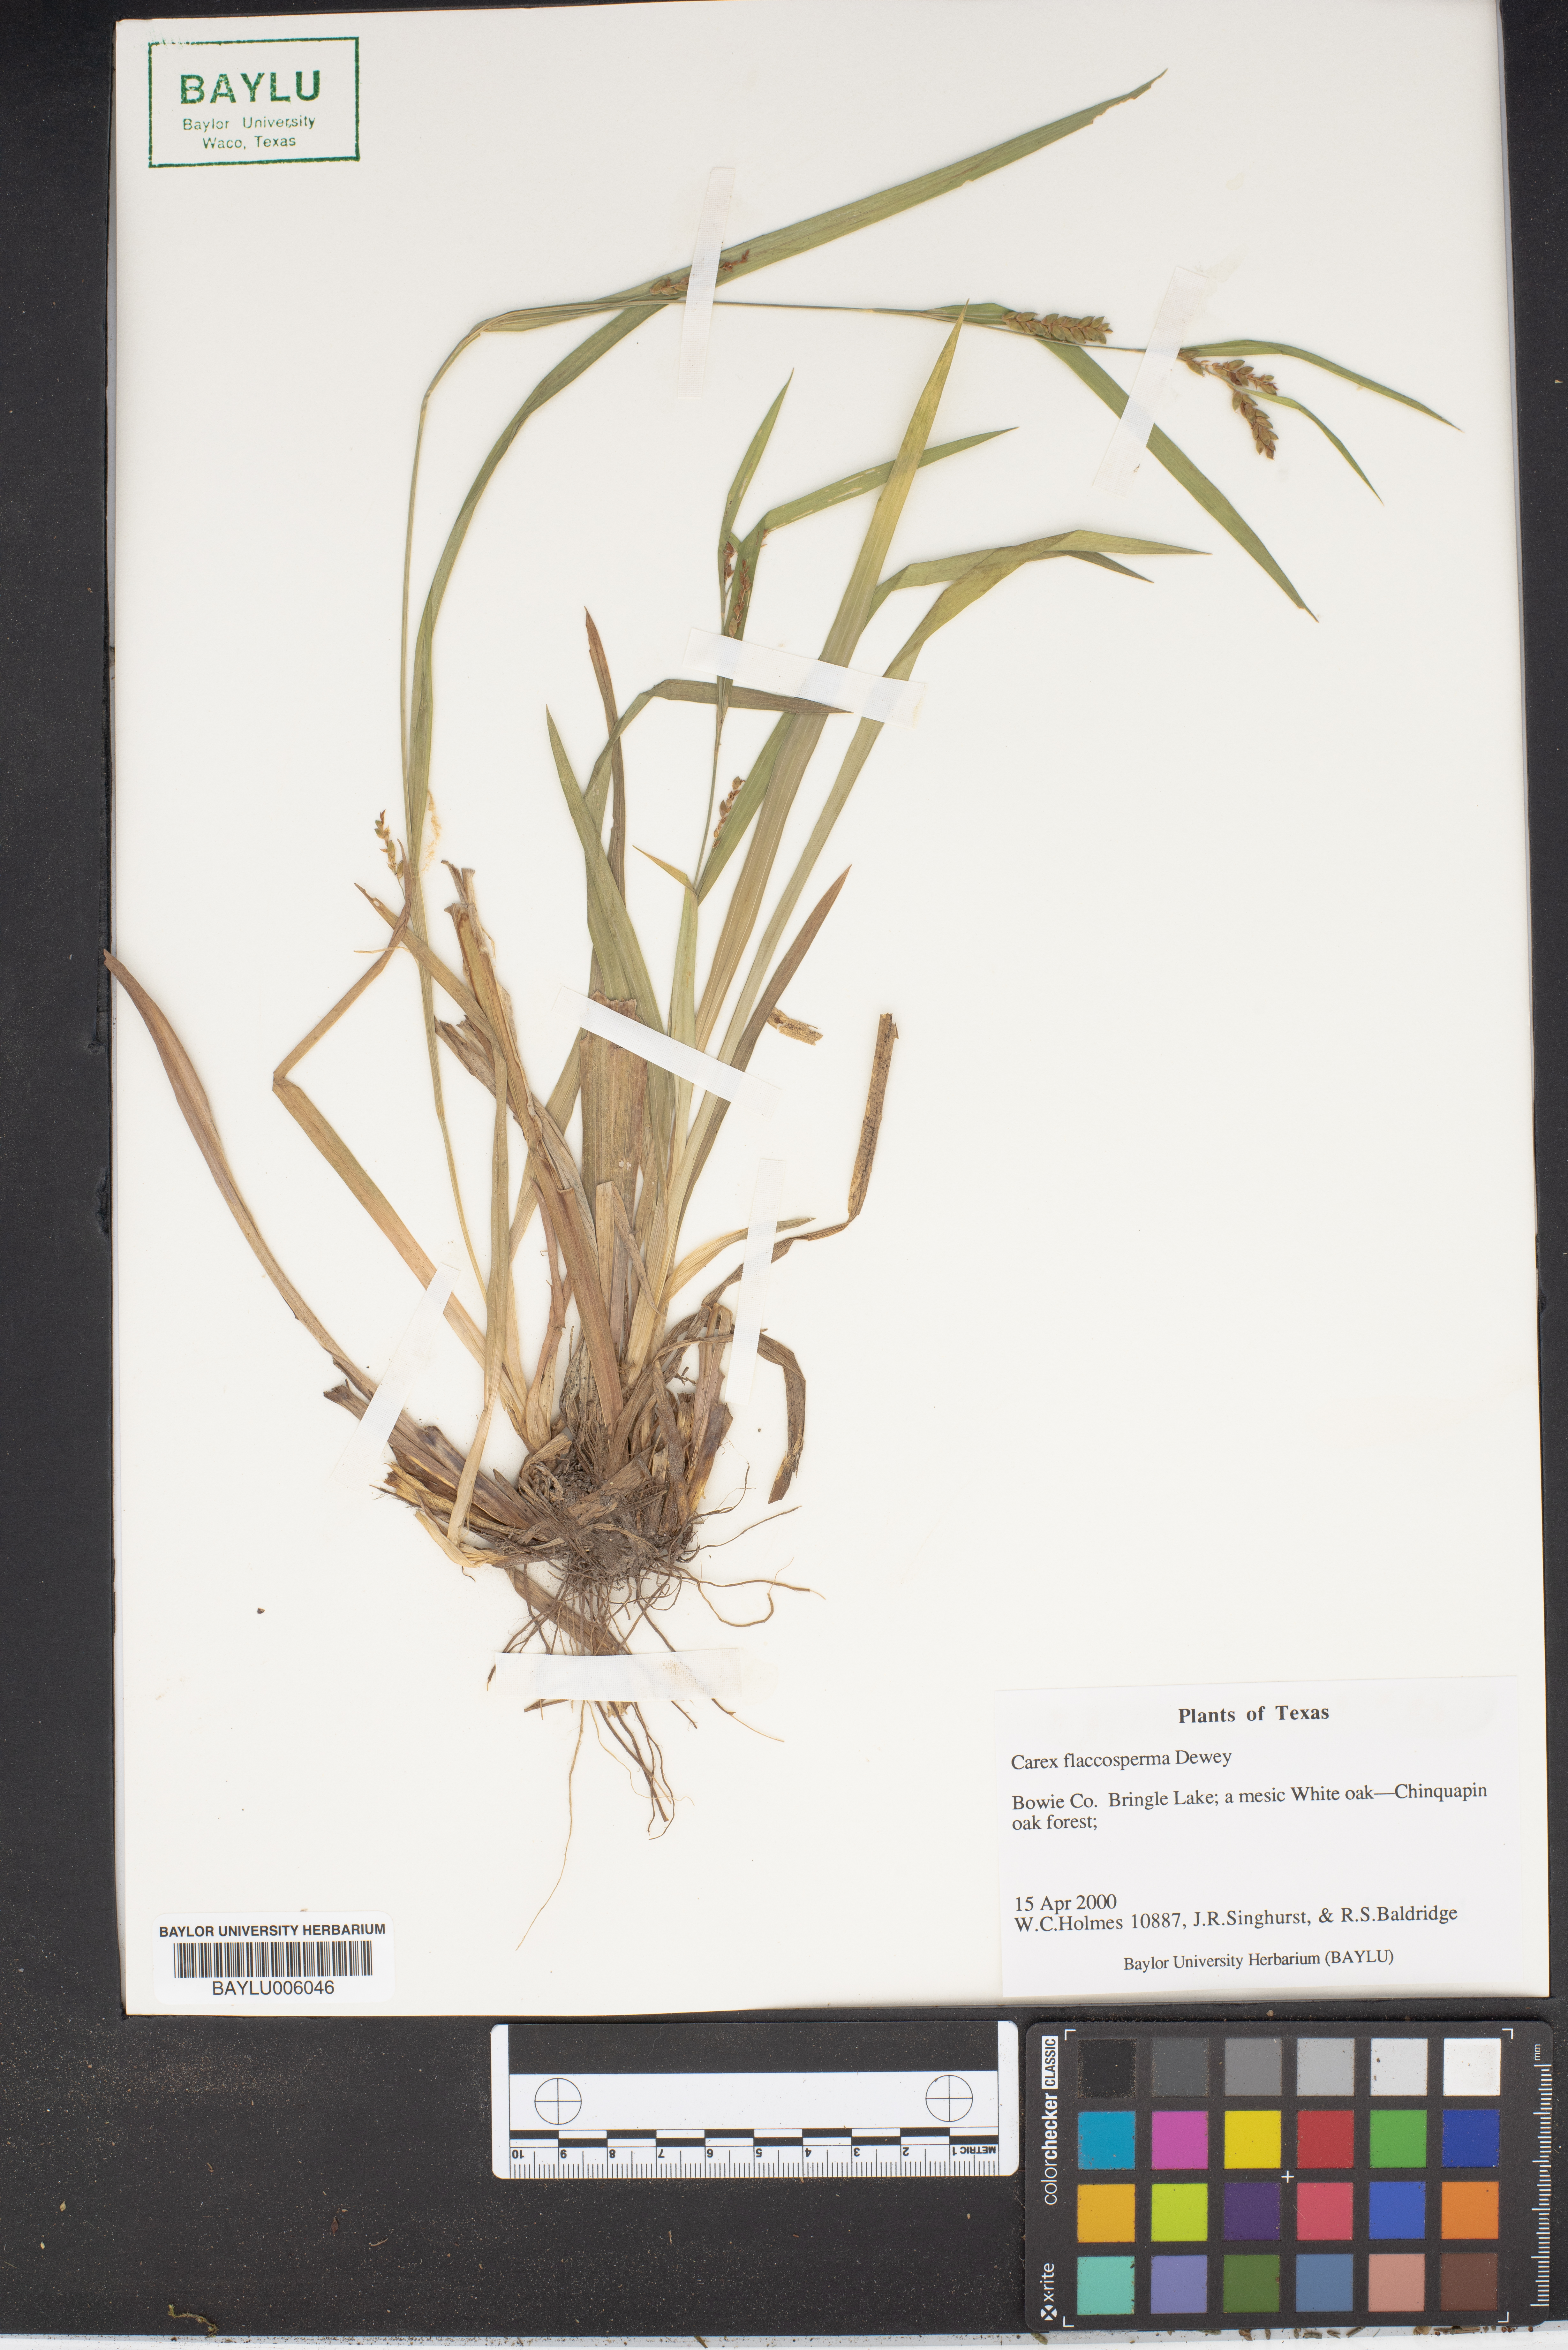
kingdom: Plantae
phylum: Tracheophyta
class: Liliopsida
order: Poales
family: Cyperaceae
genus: Carex
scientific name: Carex flaccosperma
